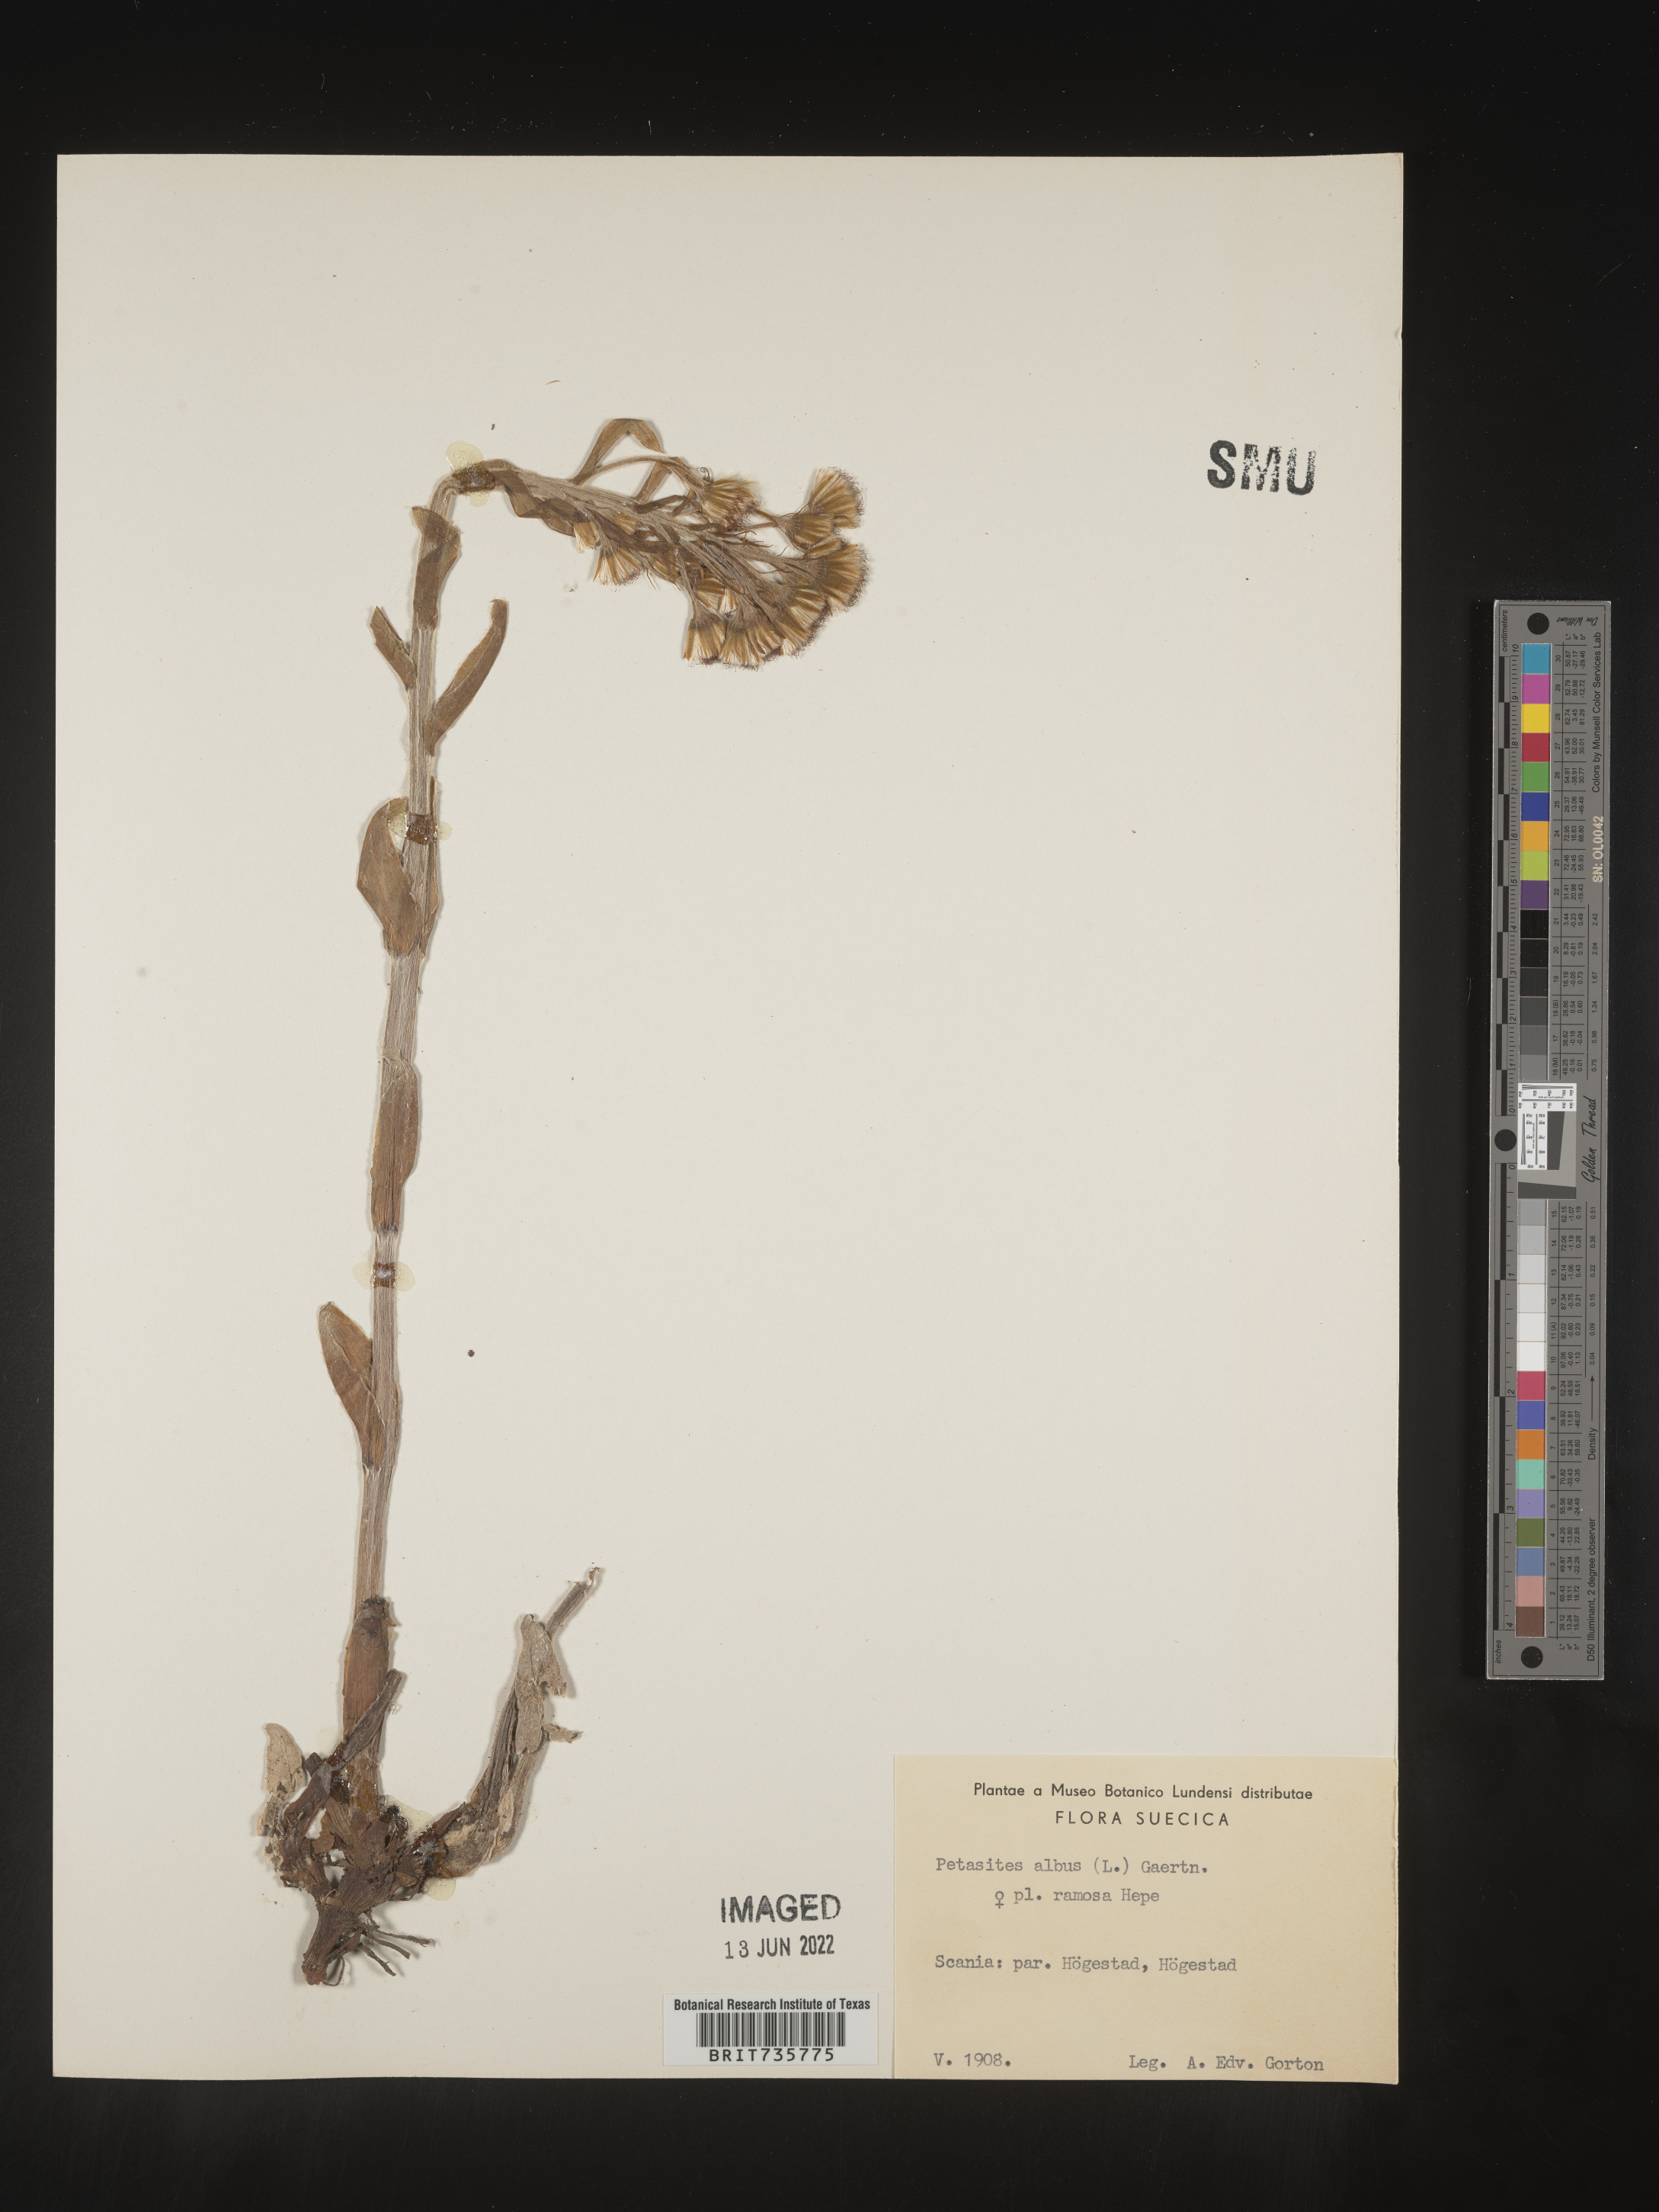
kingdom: Plantae
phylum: Tracheophyta
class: Magnoliopsida
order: Asterales
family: Asteraceae
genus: Petasites
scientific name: Petasites
